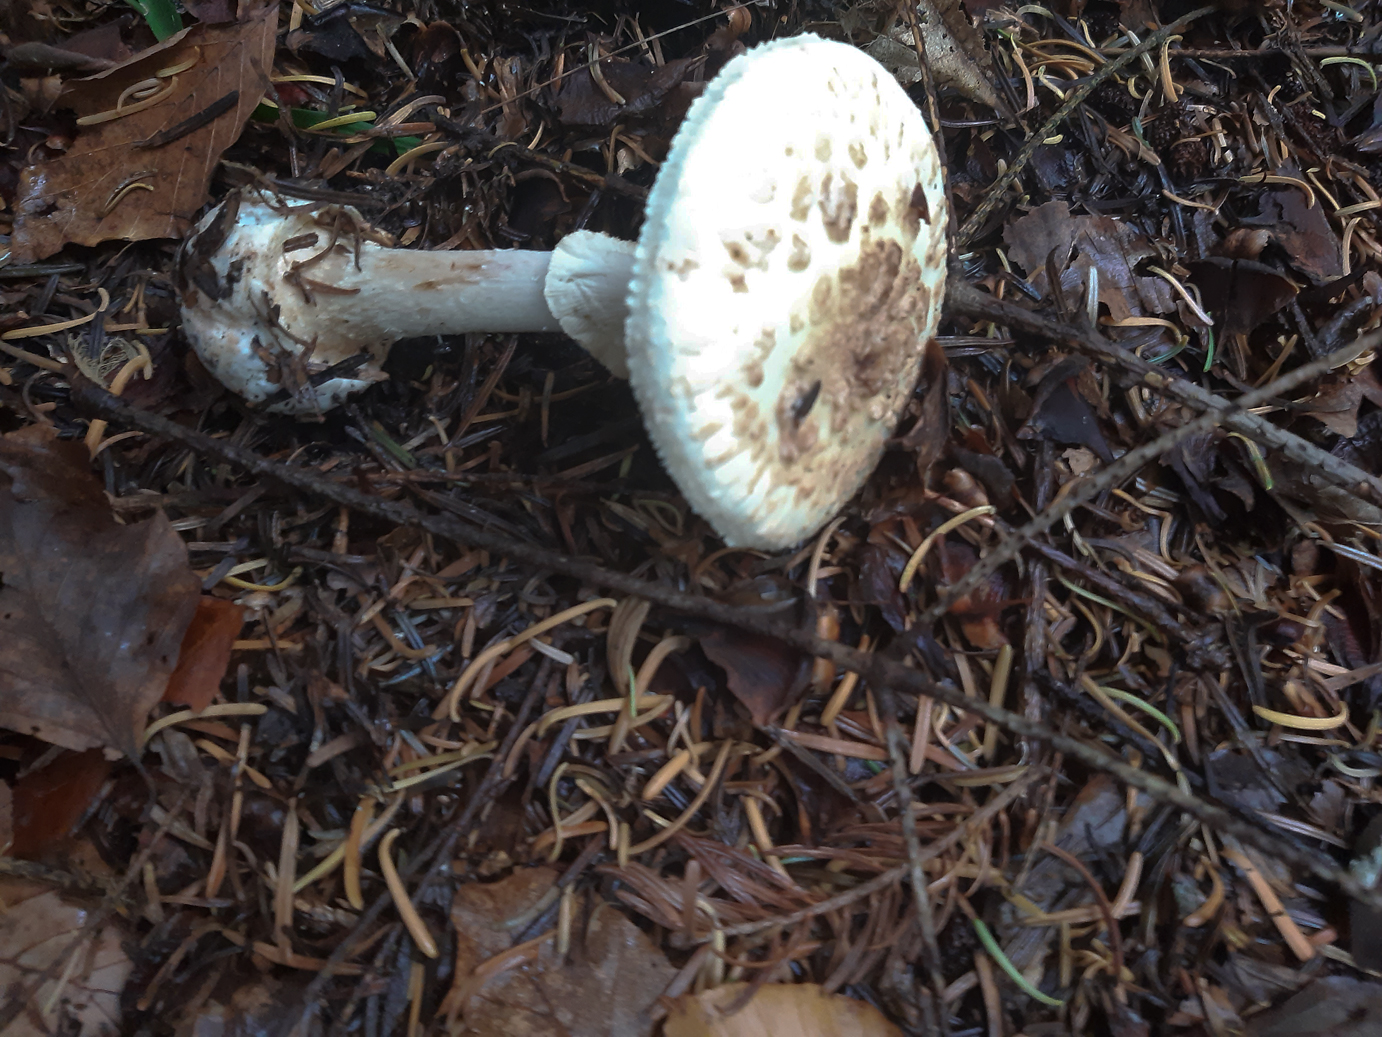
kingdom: Fungi
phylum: Basidiomycota
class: Agaricomycetes
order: Agaricales
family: Amanitaceae
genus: Amanita
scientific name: Amanita citrina
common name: kugleknoldet fluesvamp
